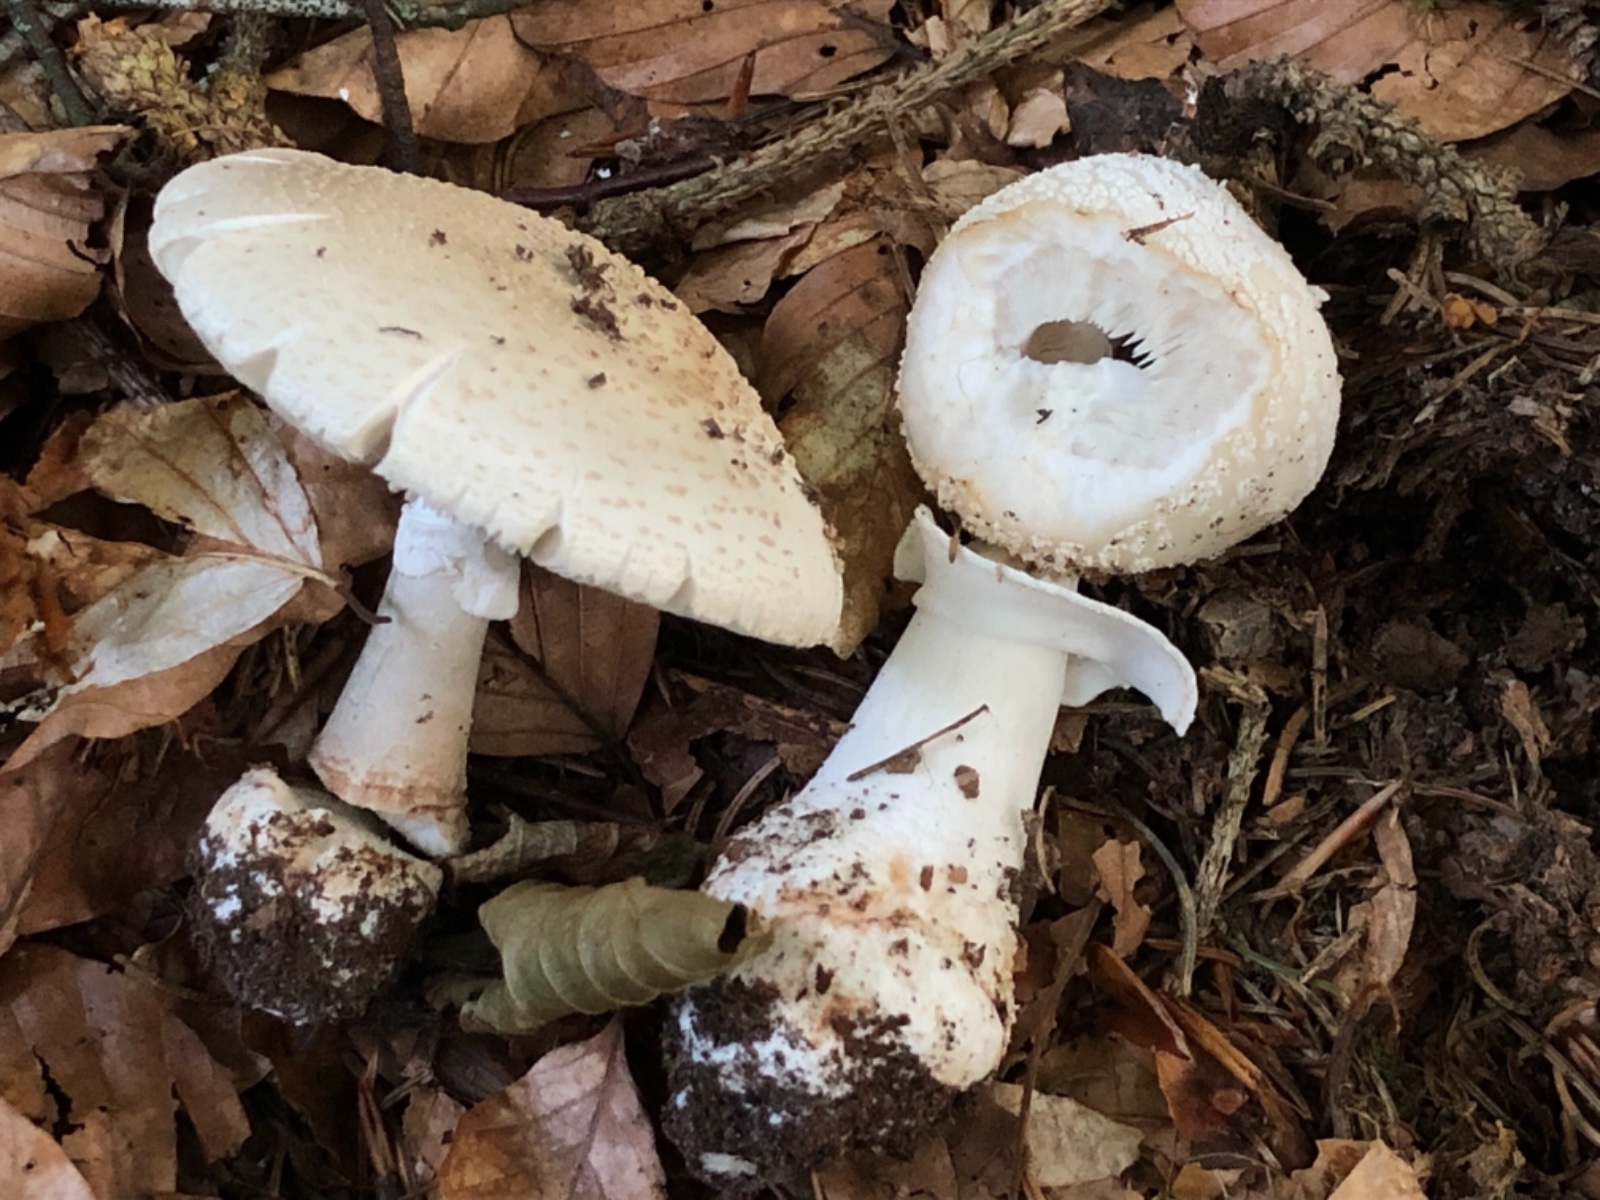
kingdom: Fungi
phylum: Basidiomycota
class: Agaricomycetes
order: Agaricales
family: Amanitaceae
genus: Amanita
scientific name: Amanita citrina
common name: False death-cap
